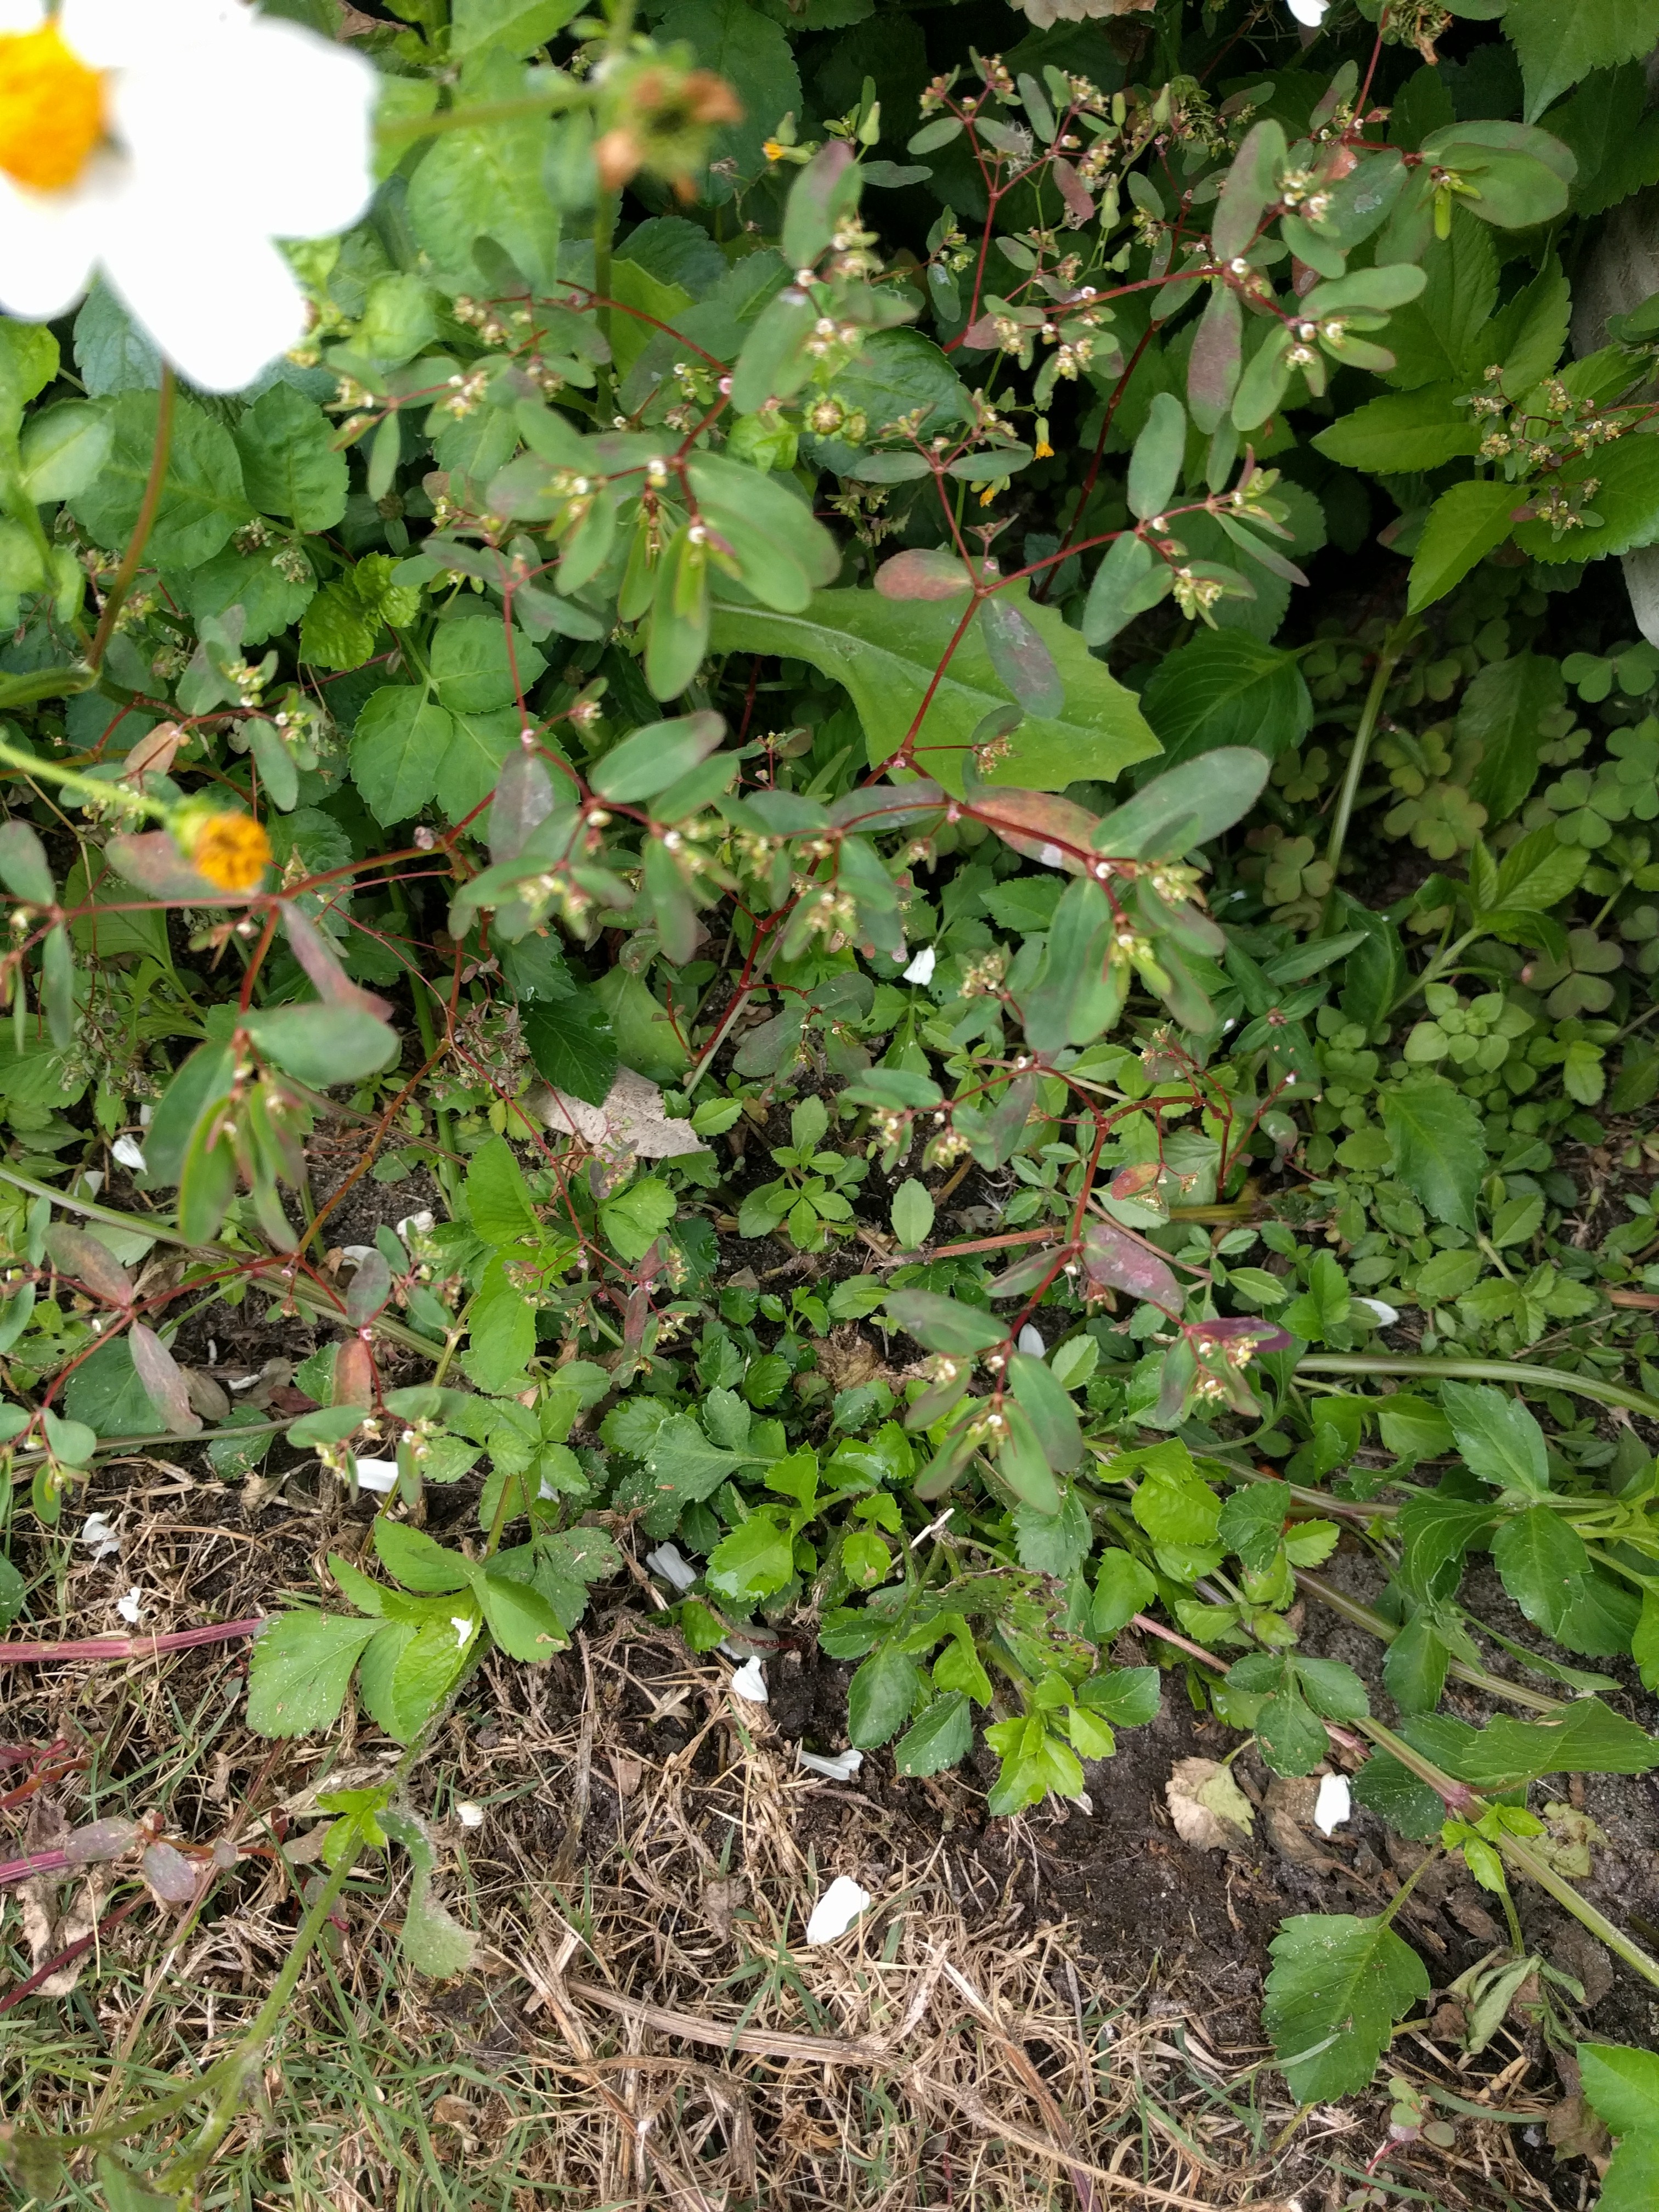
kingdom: Plantae
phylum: Tracheophyta
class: Magnoliopsida
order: Malpighiales
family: Euphorbiaceae
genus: Euphorbia
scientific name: Euphorbia hyssopifolia
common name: Spurge
